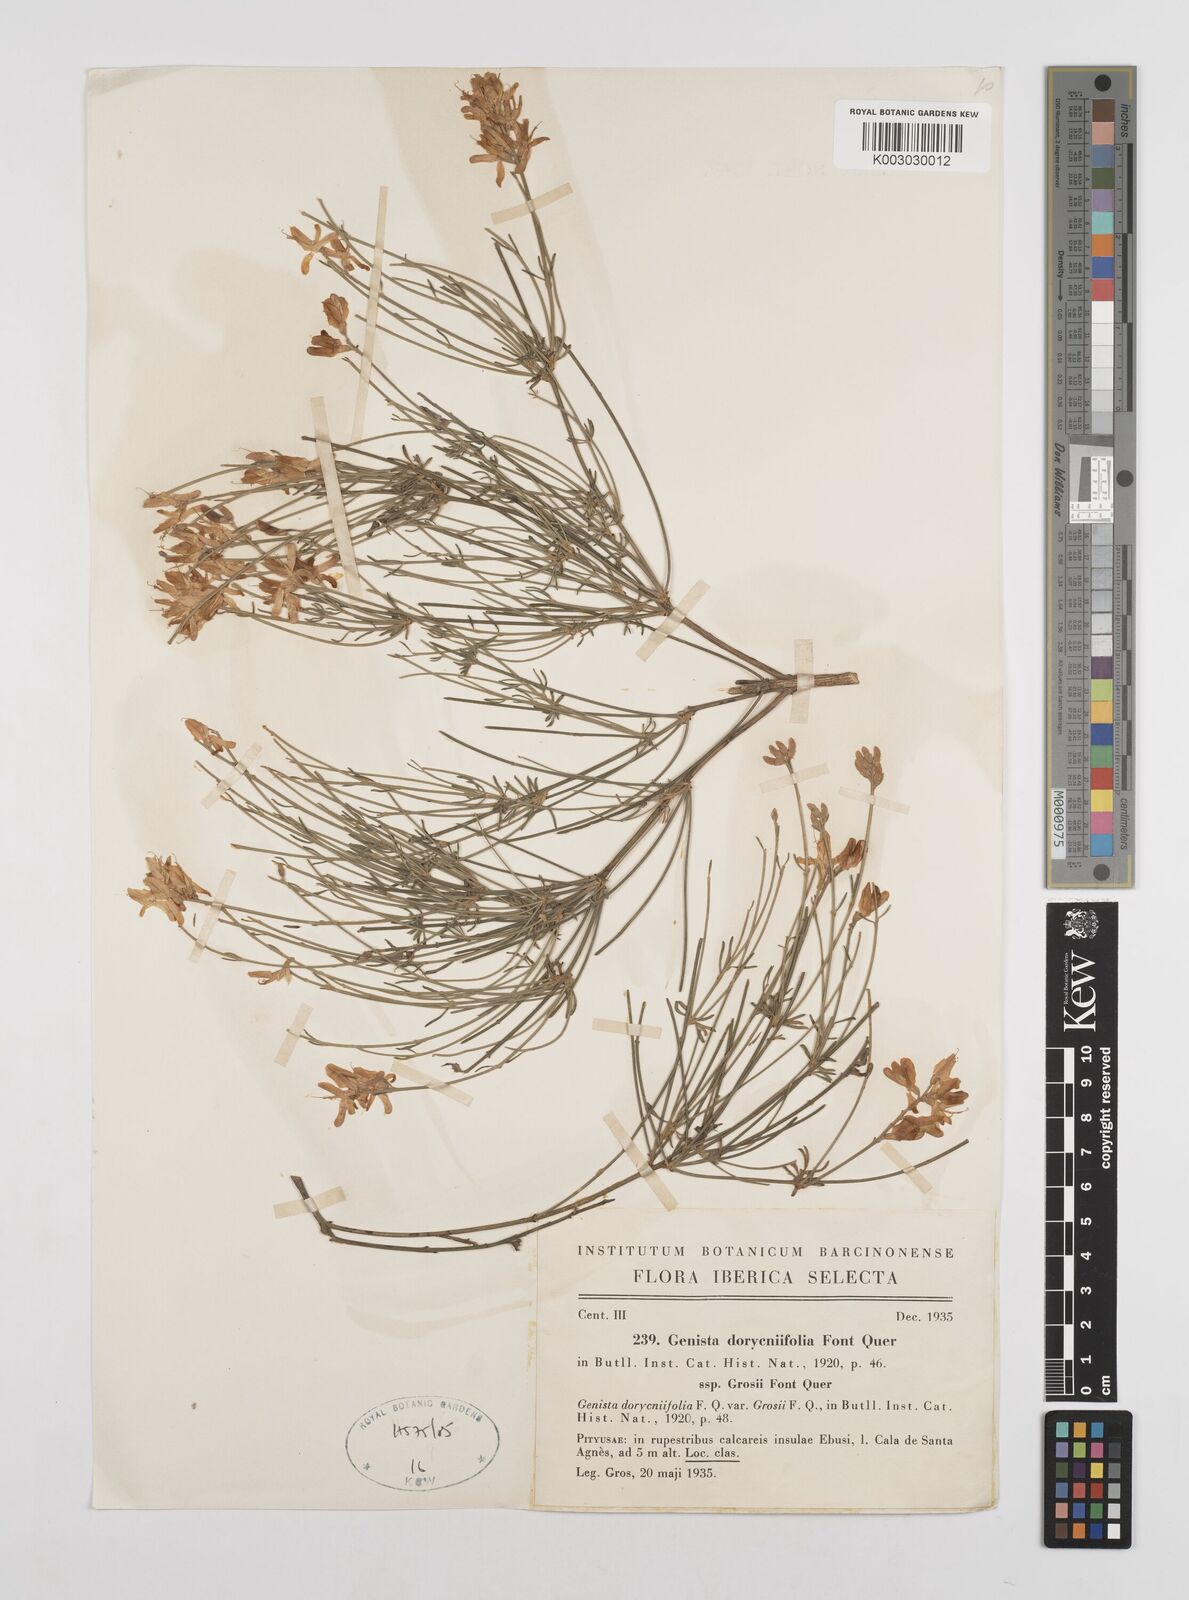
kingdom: Plantae
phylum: Tracheophyta
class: Magnoliopsida
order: Fabales
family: Fabaceae
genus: Genista
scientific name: Genista dorycnifolia
